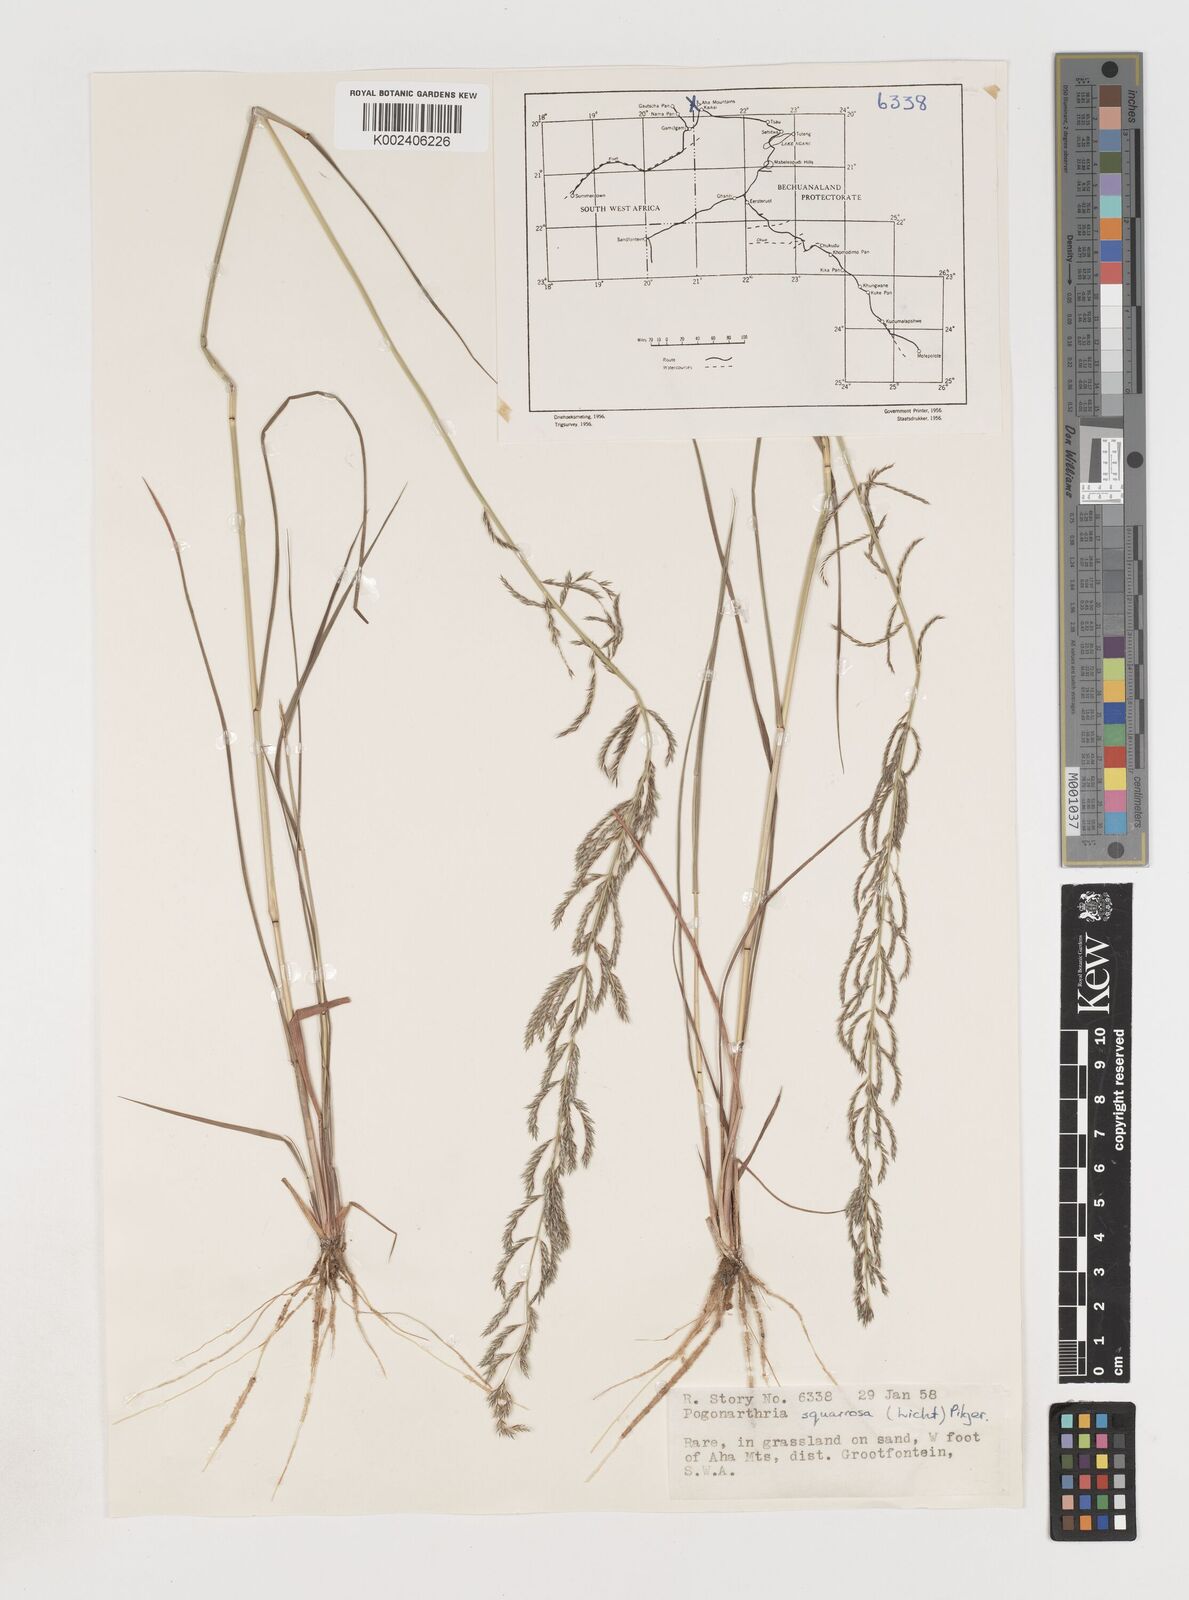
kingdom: Plantae
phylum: Tracheophyta
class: Liliopsida
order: Poales
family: Poaceae
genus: Pogonarthria
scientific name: Pogonarthria squarrosa
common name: Grass
